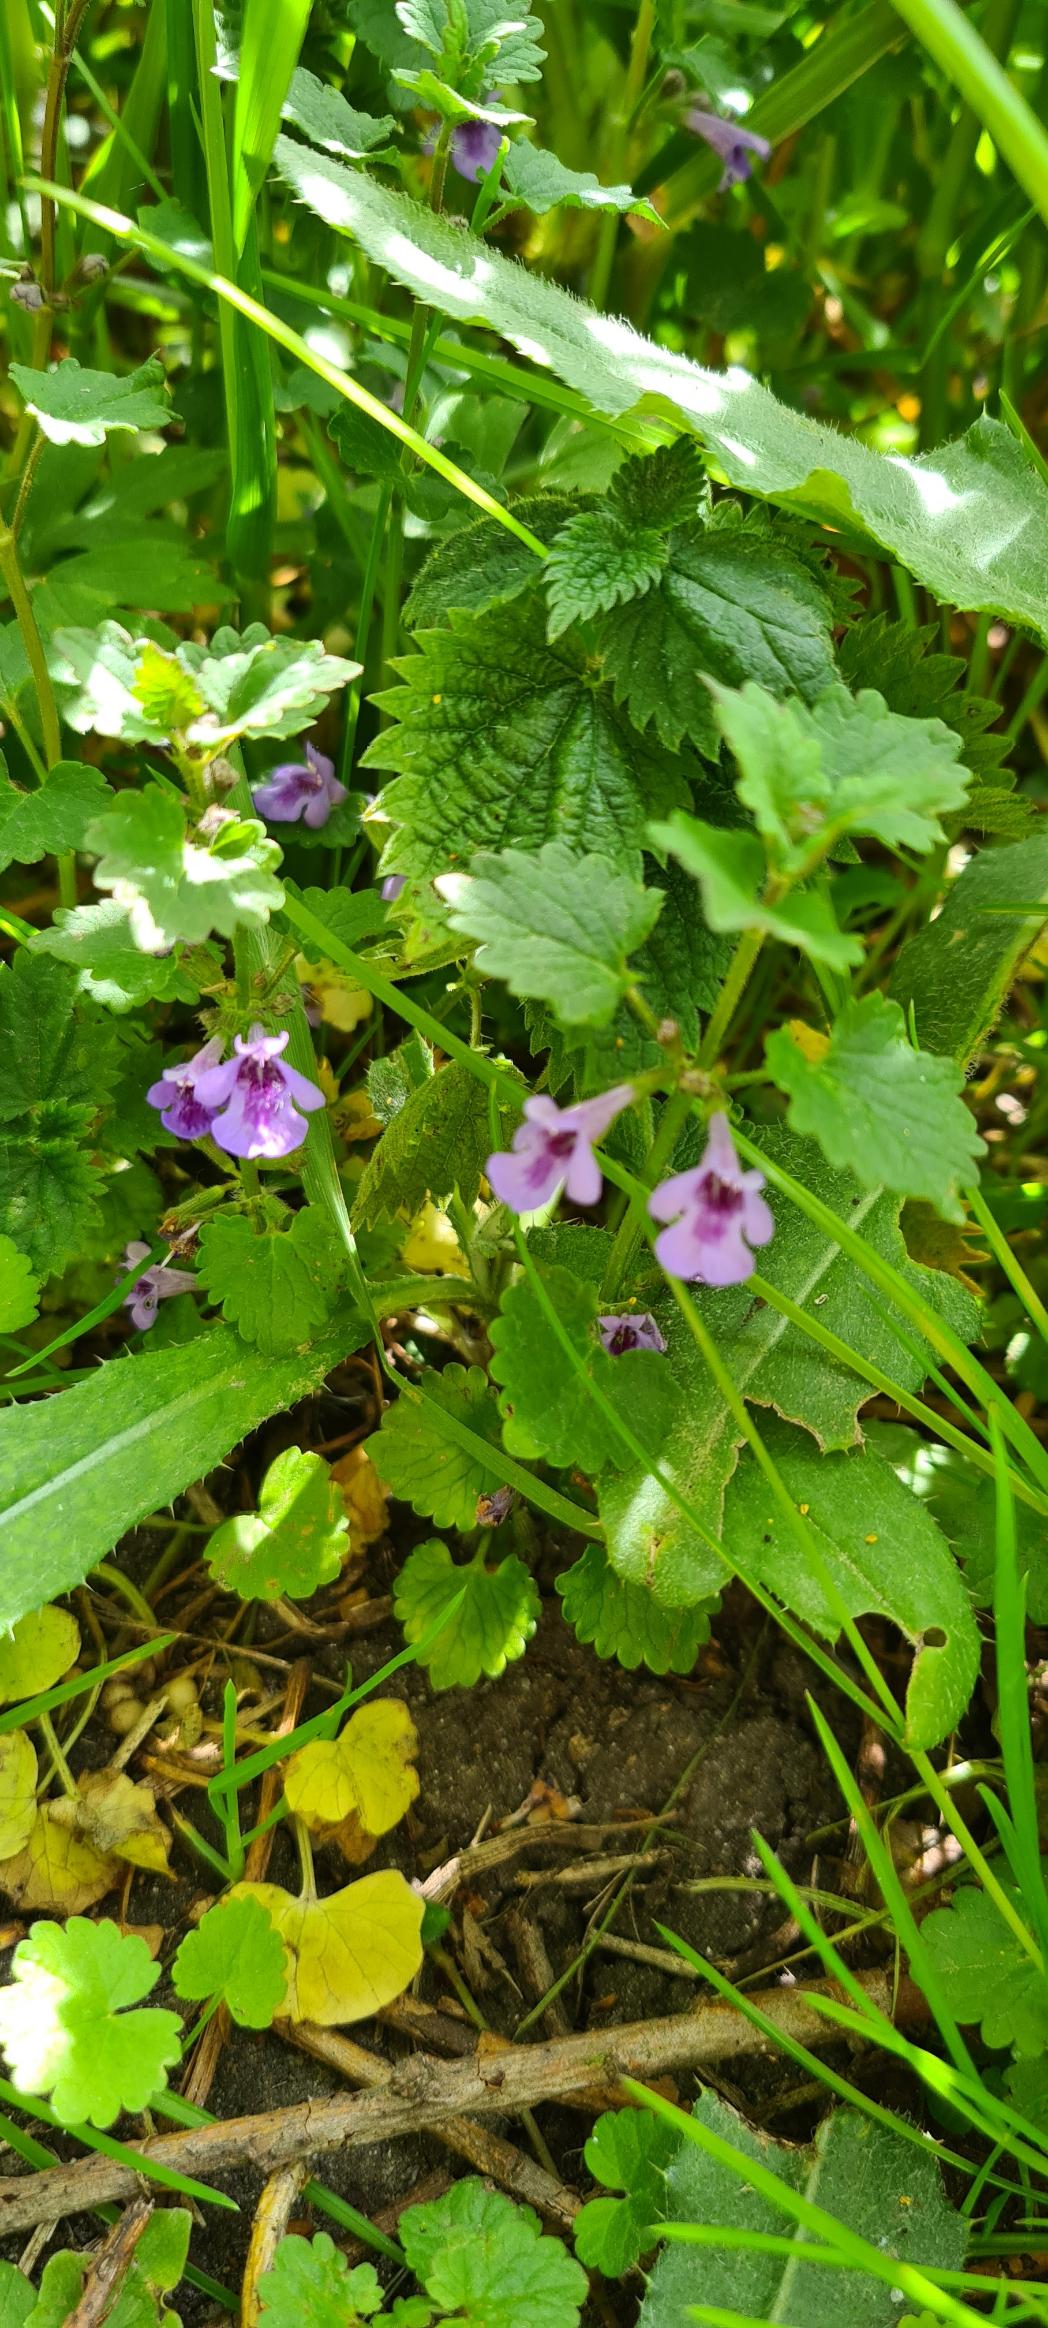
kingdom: Plantae
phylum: Tracheophyta
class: Magnoliopsida
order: Lamiales
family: Lamiaceae
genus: Glechoma
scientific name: Glechoma hederacea
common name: Korsknap
